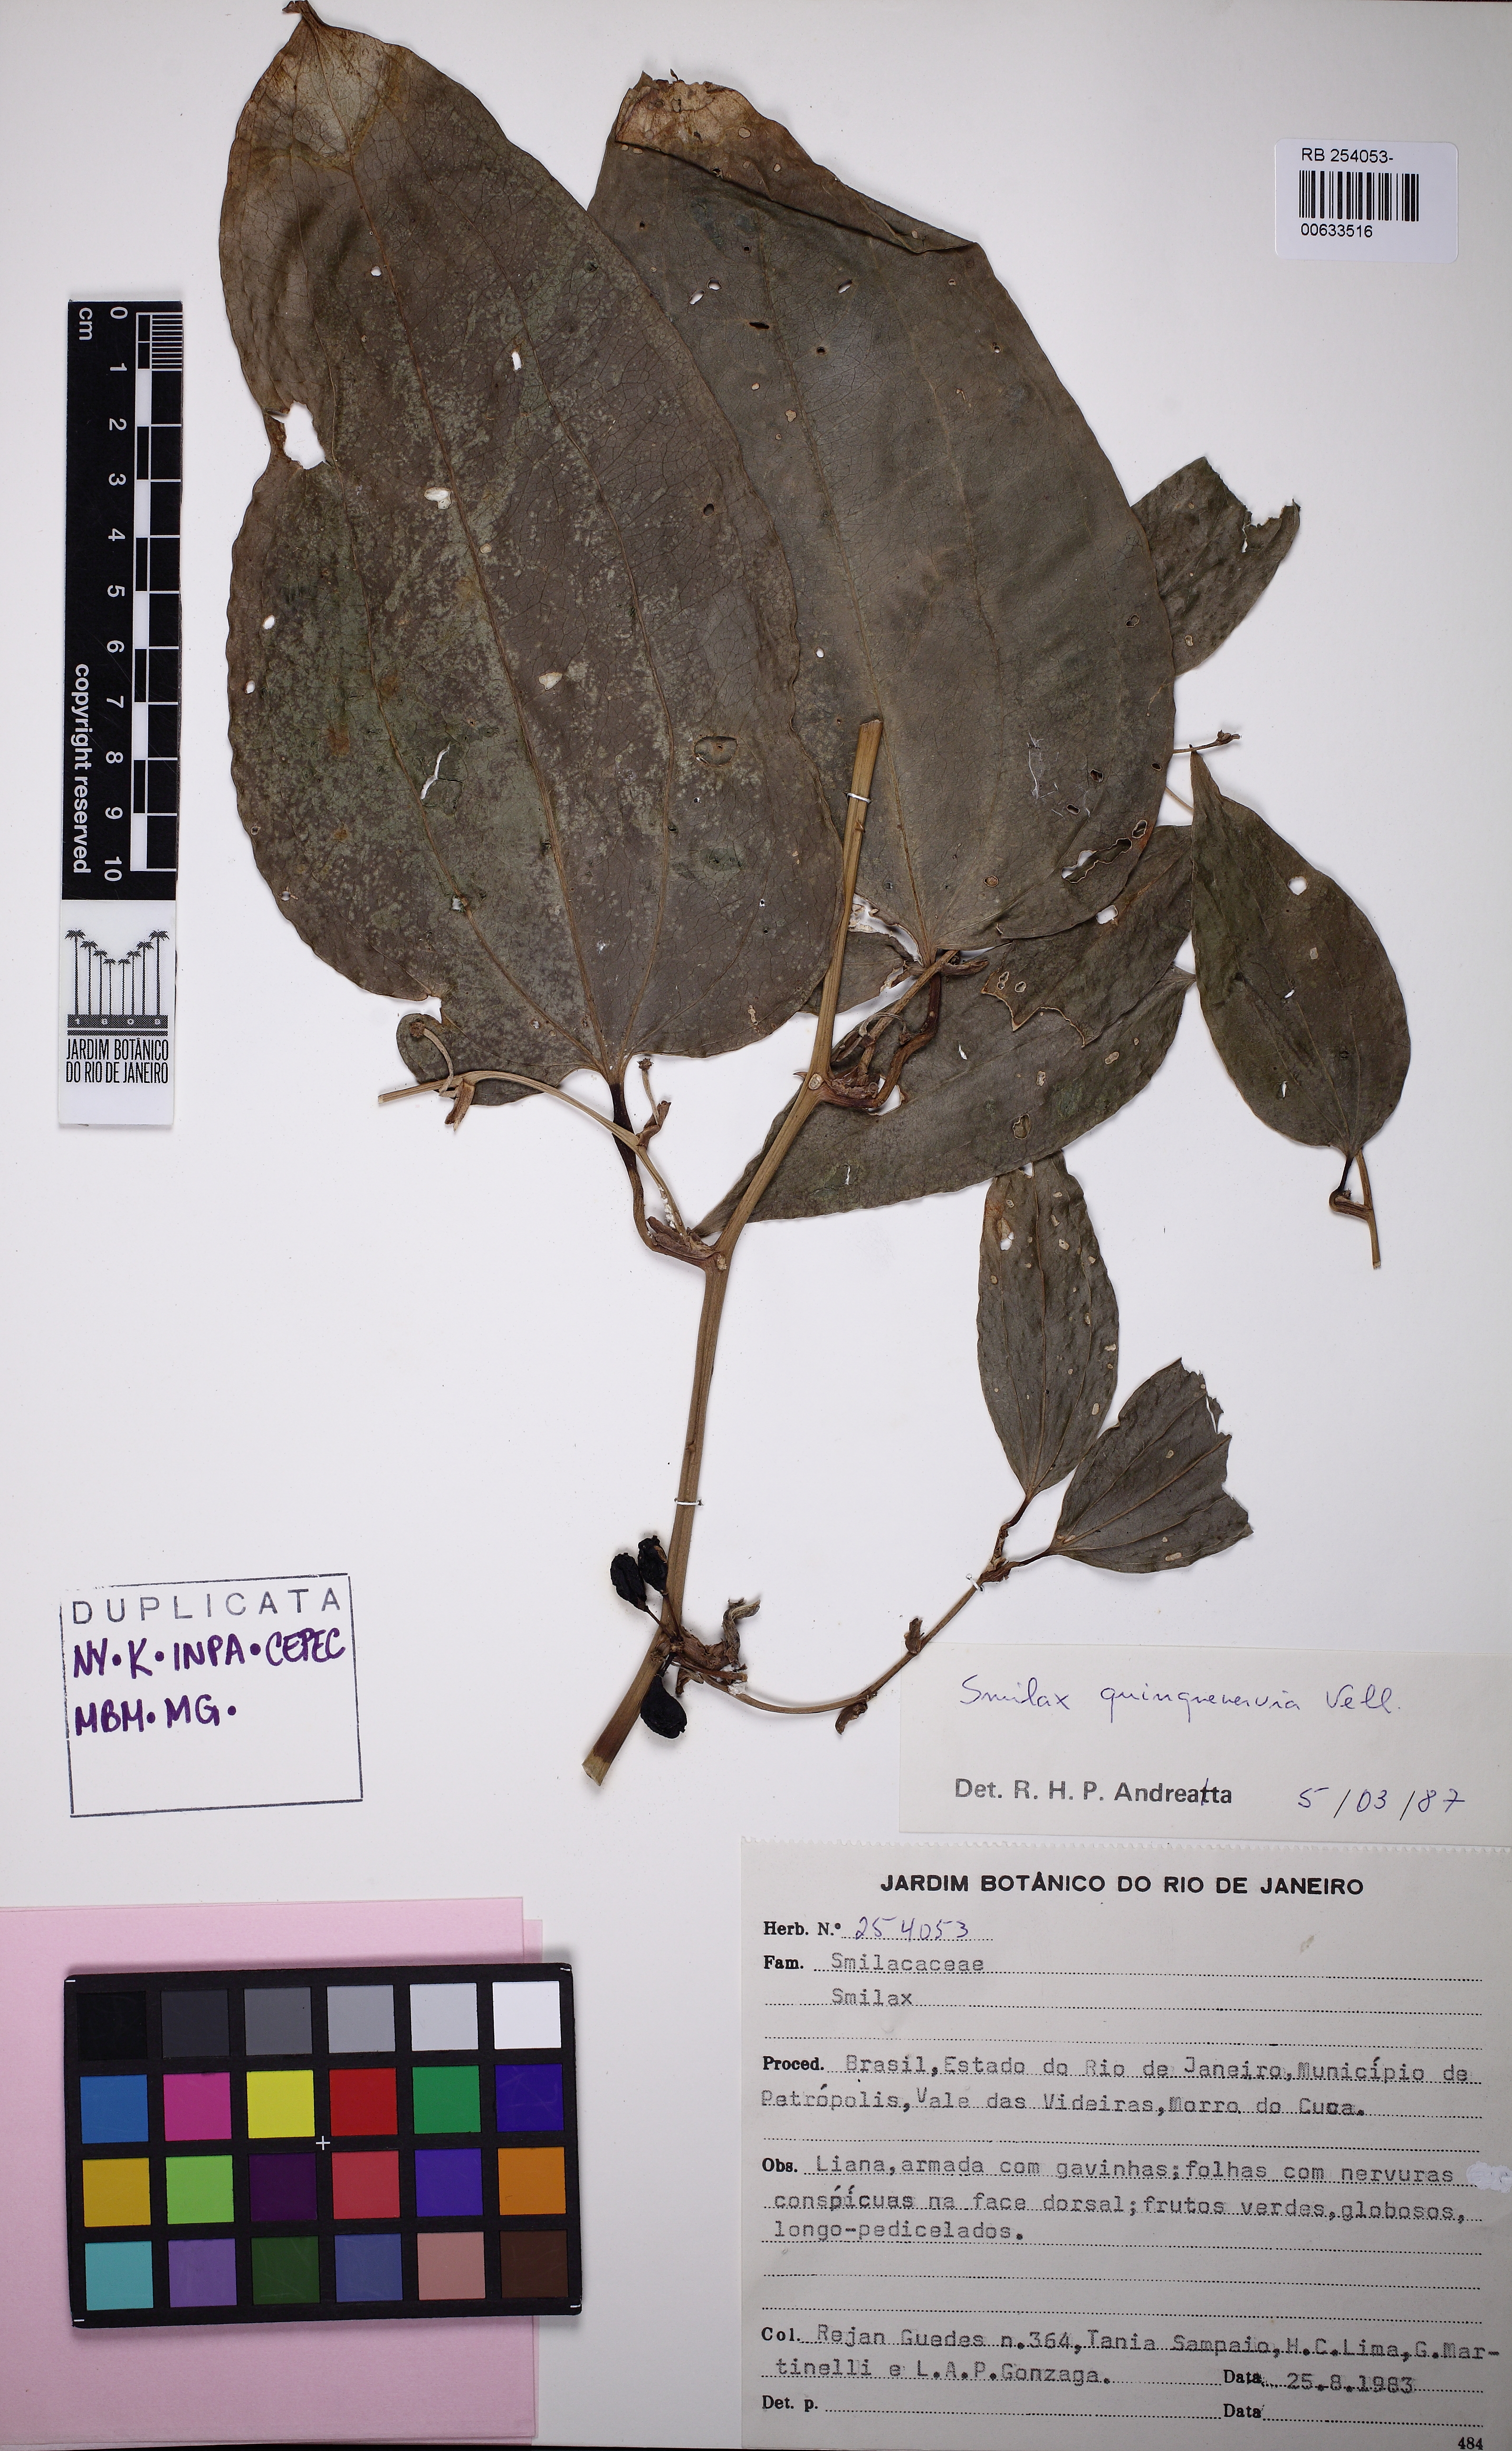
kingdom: Plantae
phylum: Tracheophyta
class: Liliopsida
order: Liliales
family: Smilacaceae
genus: Smilax
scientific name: Smilax quinquenervia
